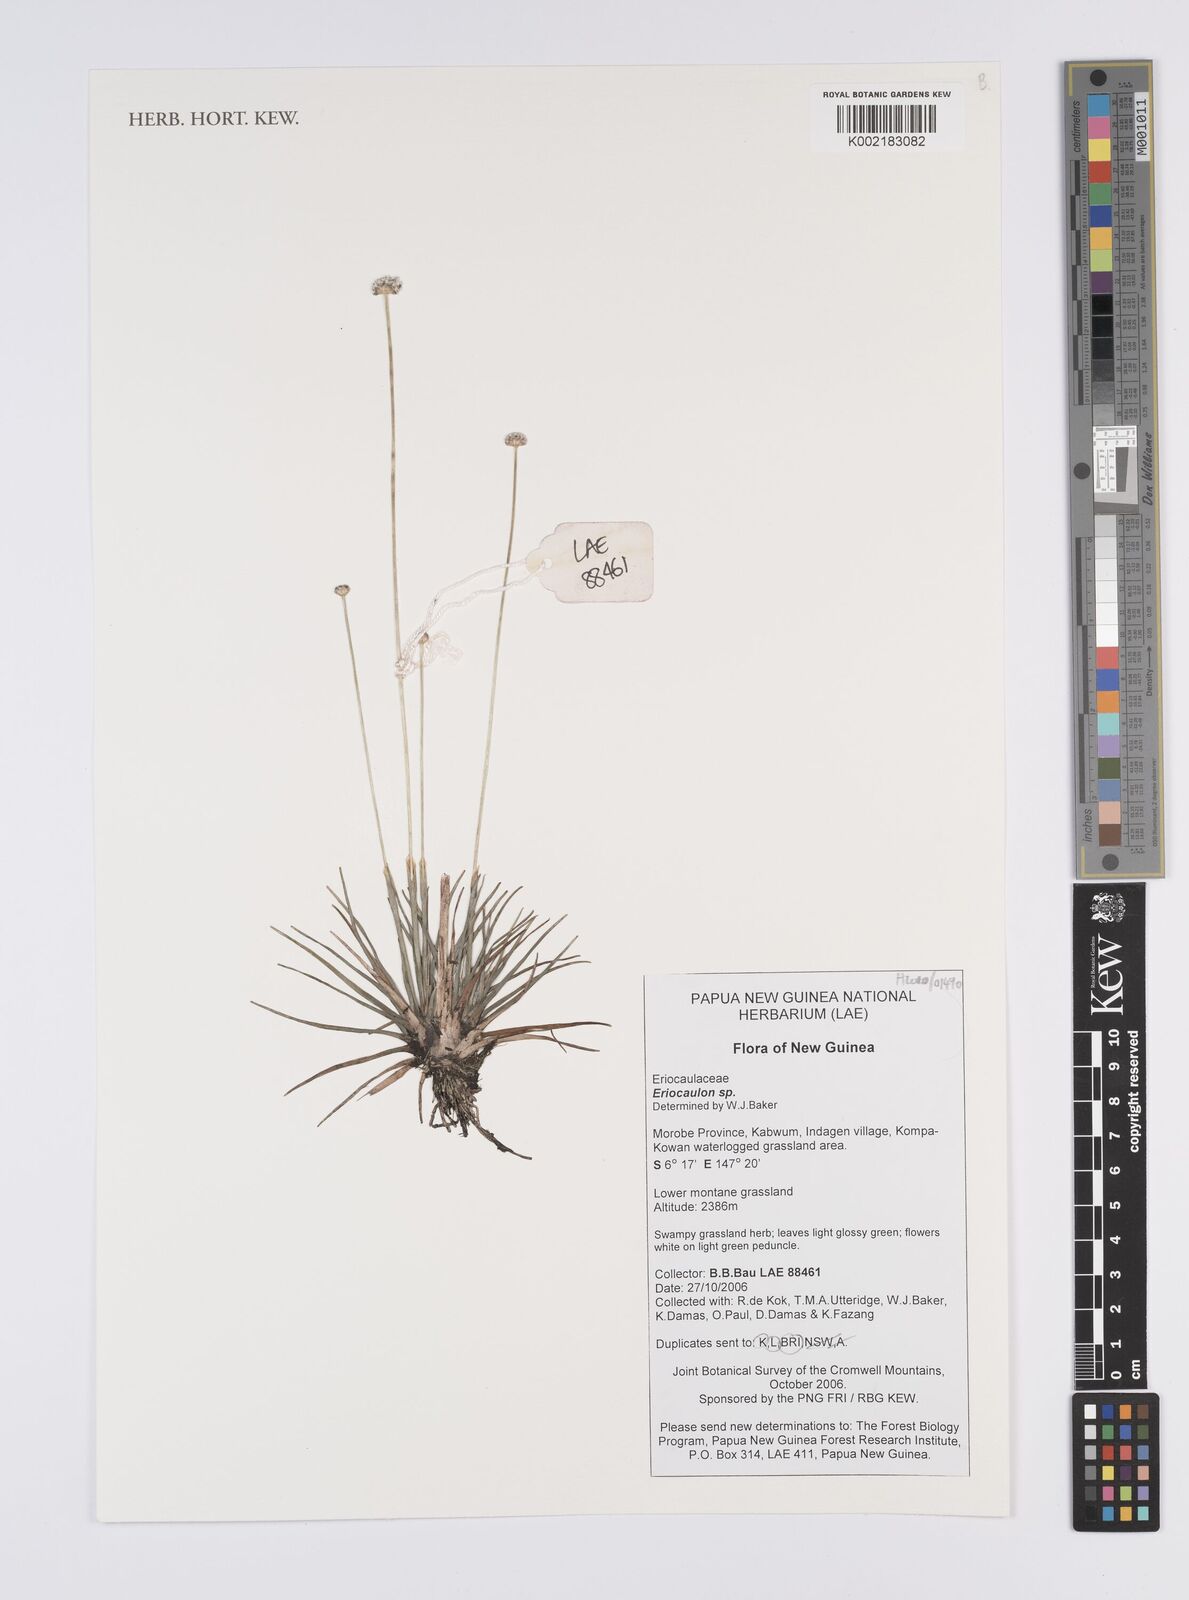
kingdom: Plantae
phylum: Tracheophyta
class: Liliopsida
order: Poales
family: Eriocaulaceae
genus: Eriocaulon
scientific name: Eriocaulon
